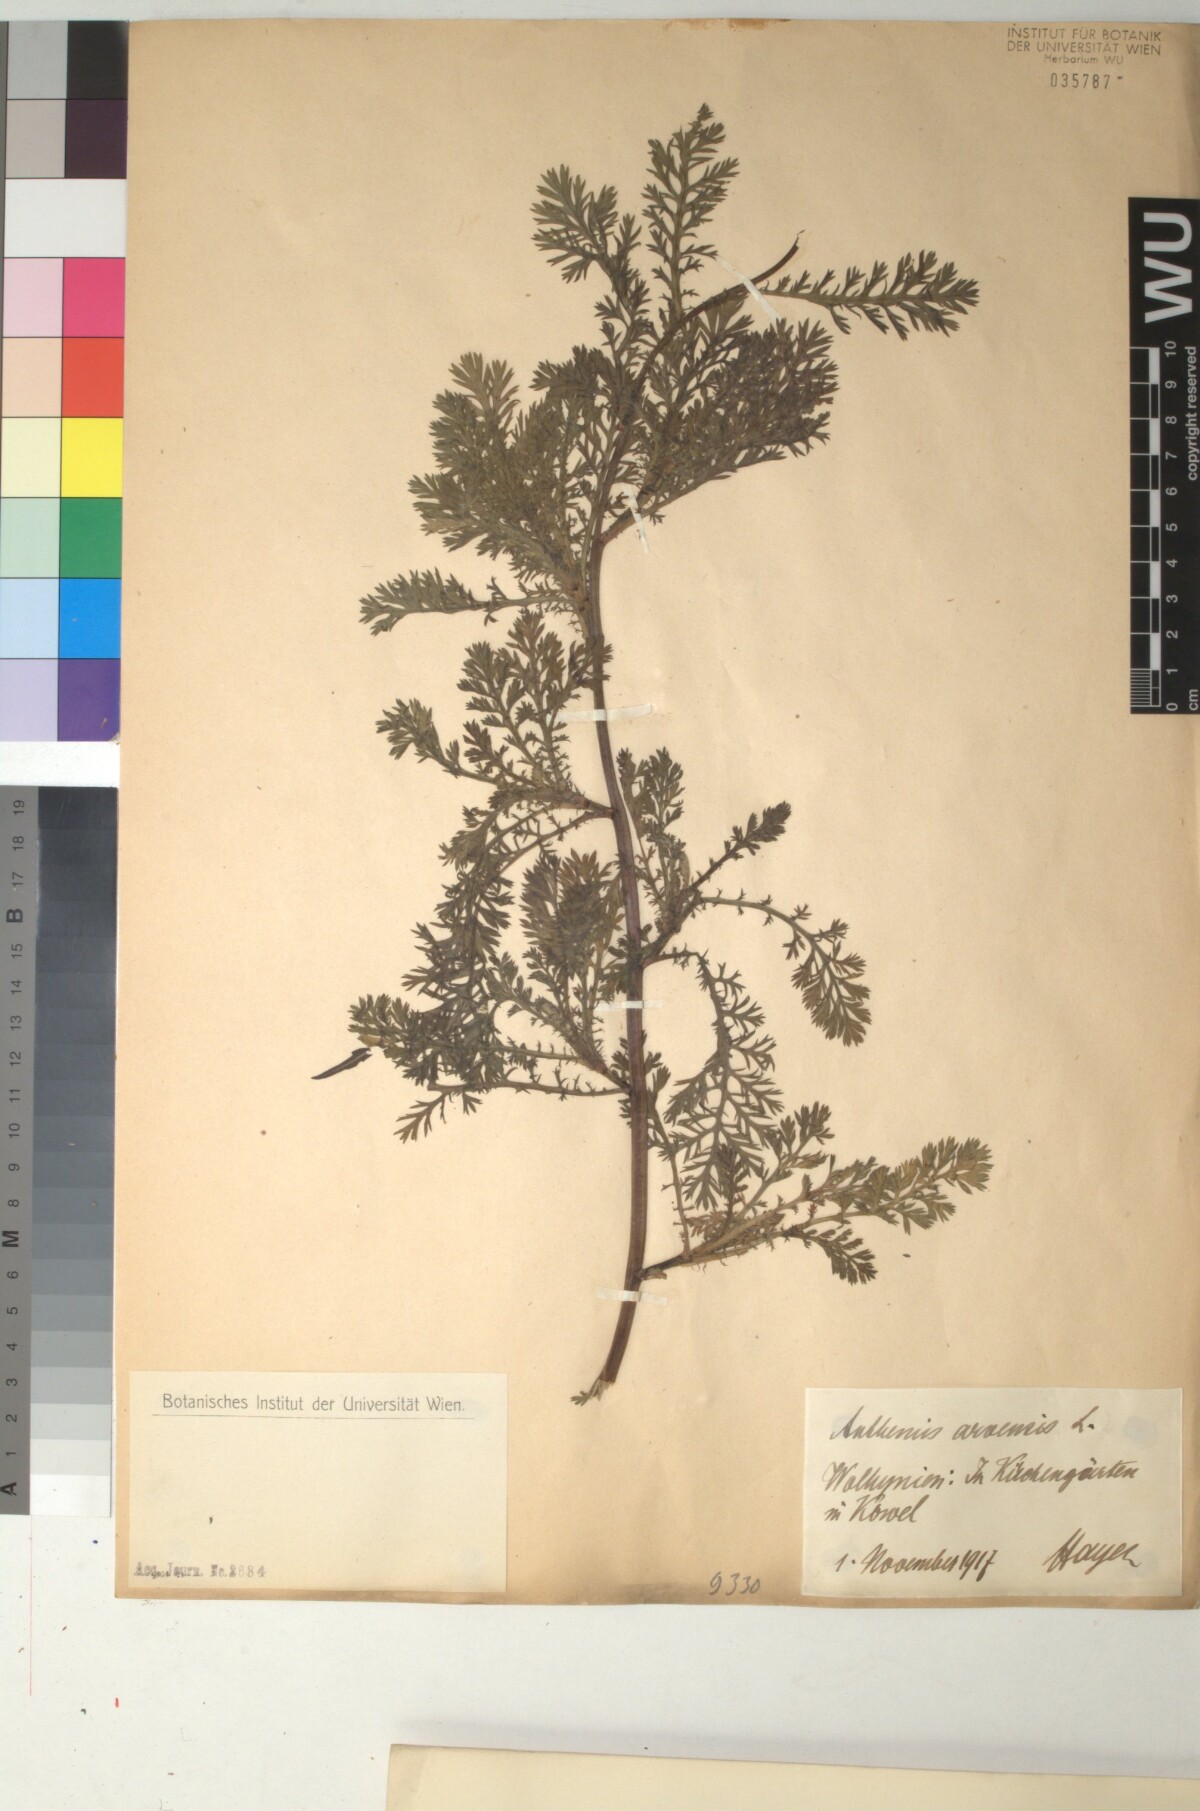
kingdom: Plantae
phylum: Tracheophyta
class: Magnoliopsida
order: Asterales
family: Asteraceae
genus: Anthemis
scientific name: Anthemis arvensis
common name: Corn chamomile
